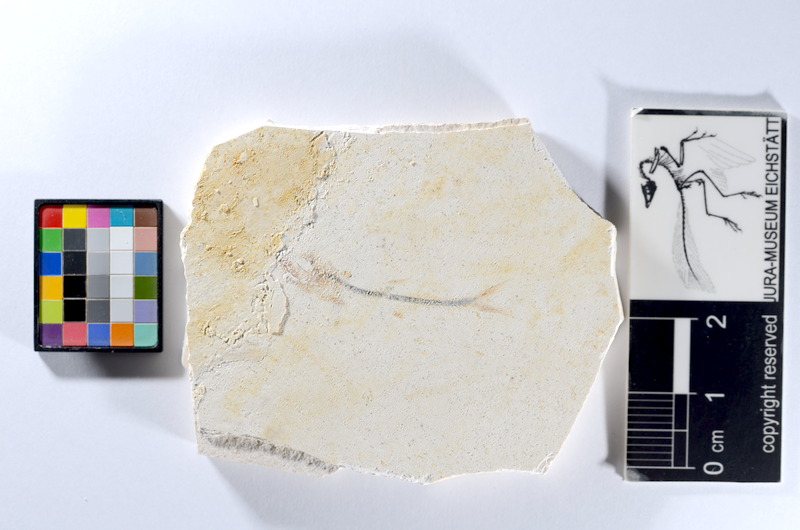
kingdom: Animalia
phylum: Chordata
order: Salmoniformes
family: Orthogonikleithridae
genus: Orthogonikleithrus
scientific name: Orthogonikleithrus hoelli
